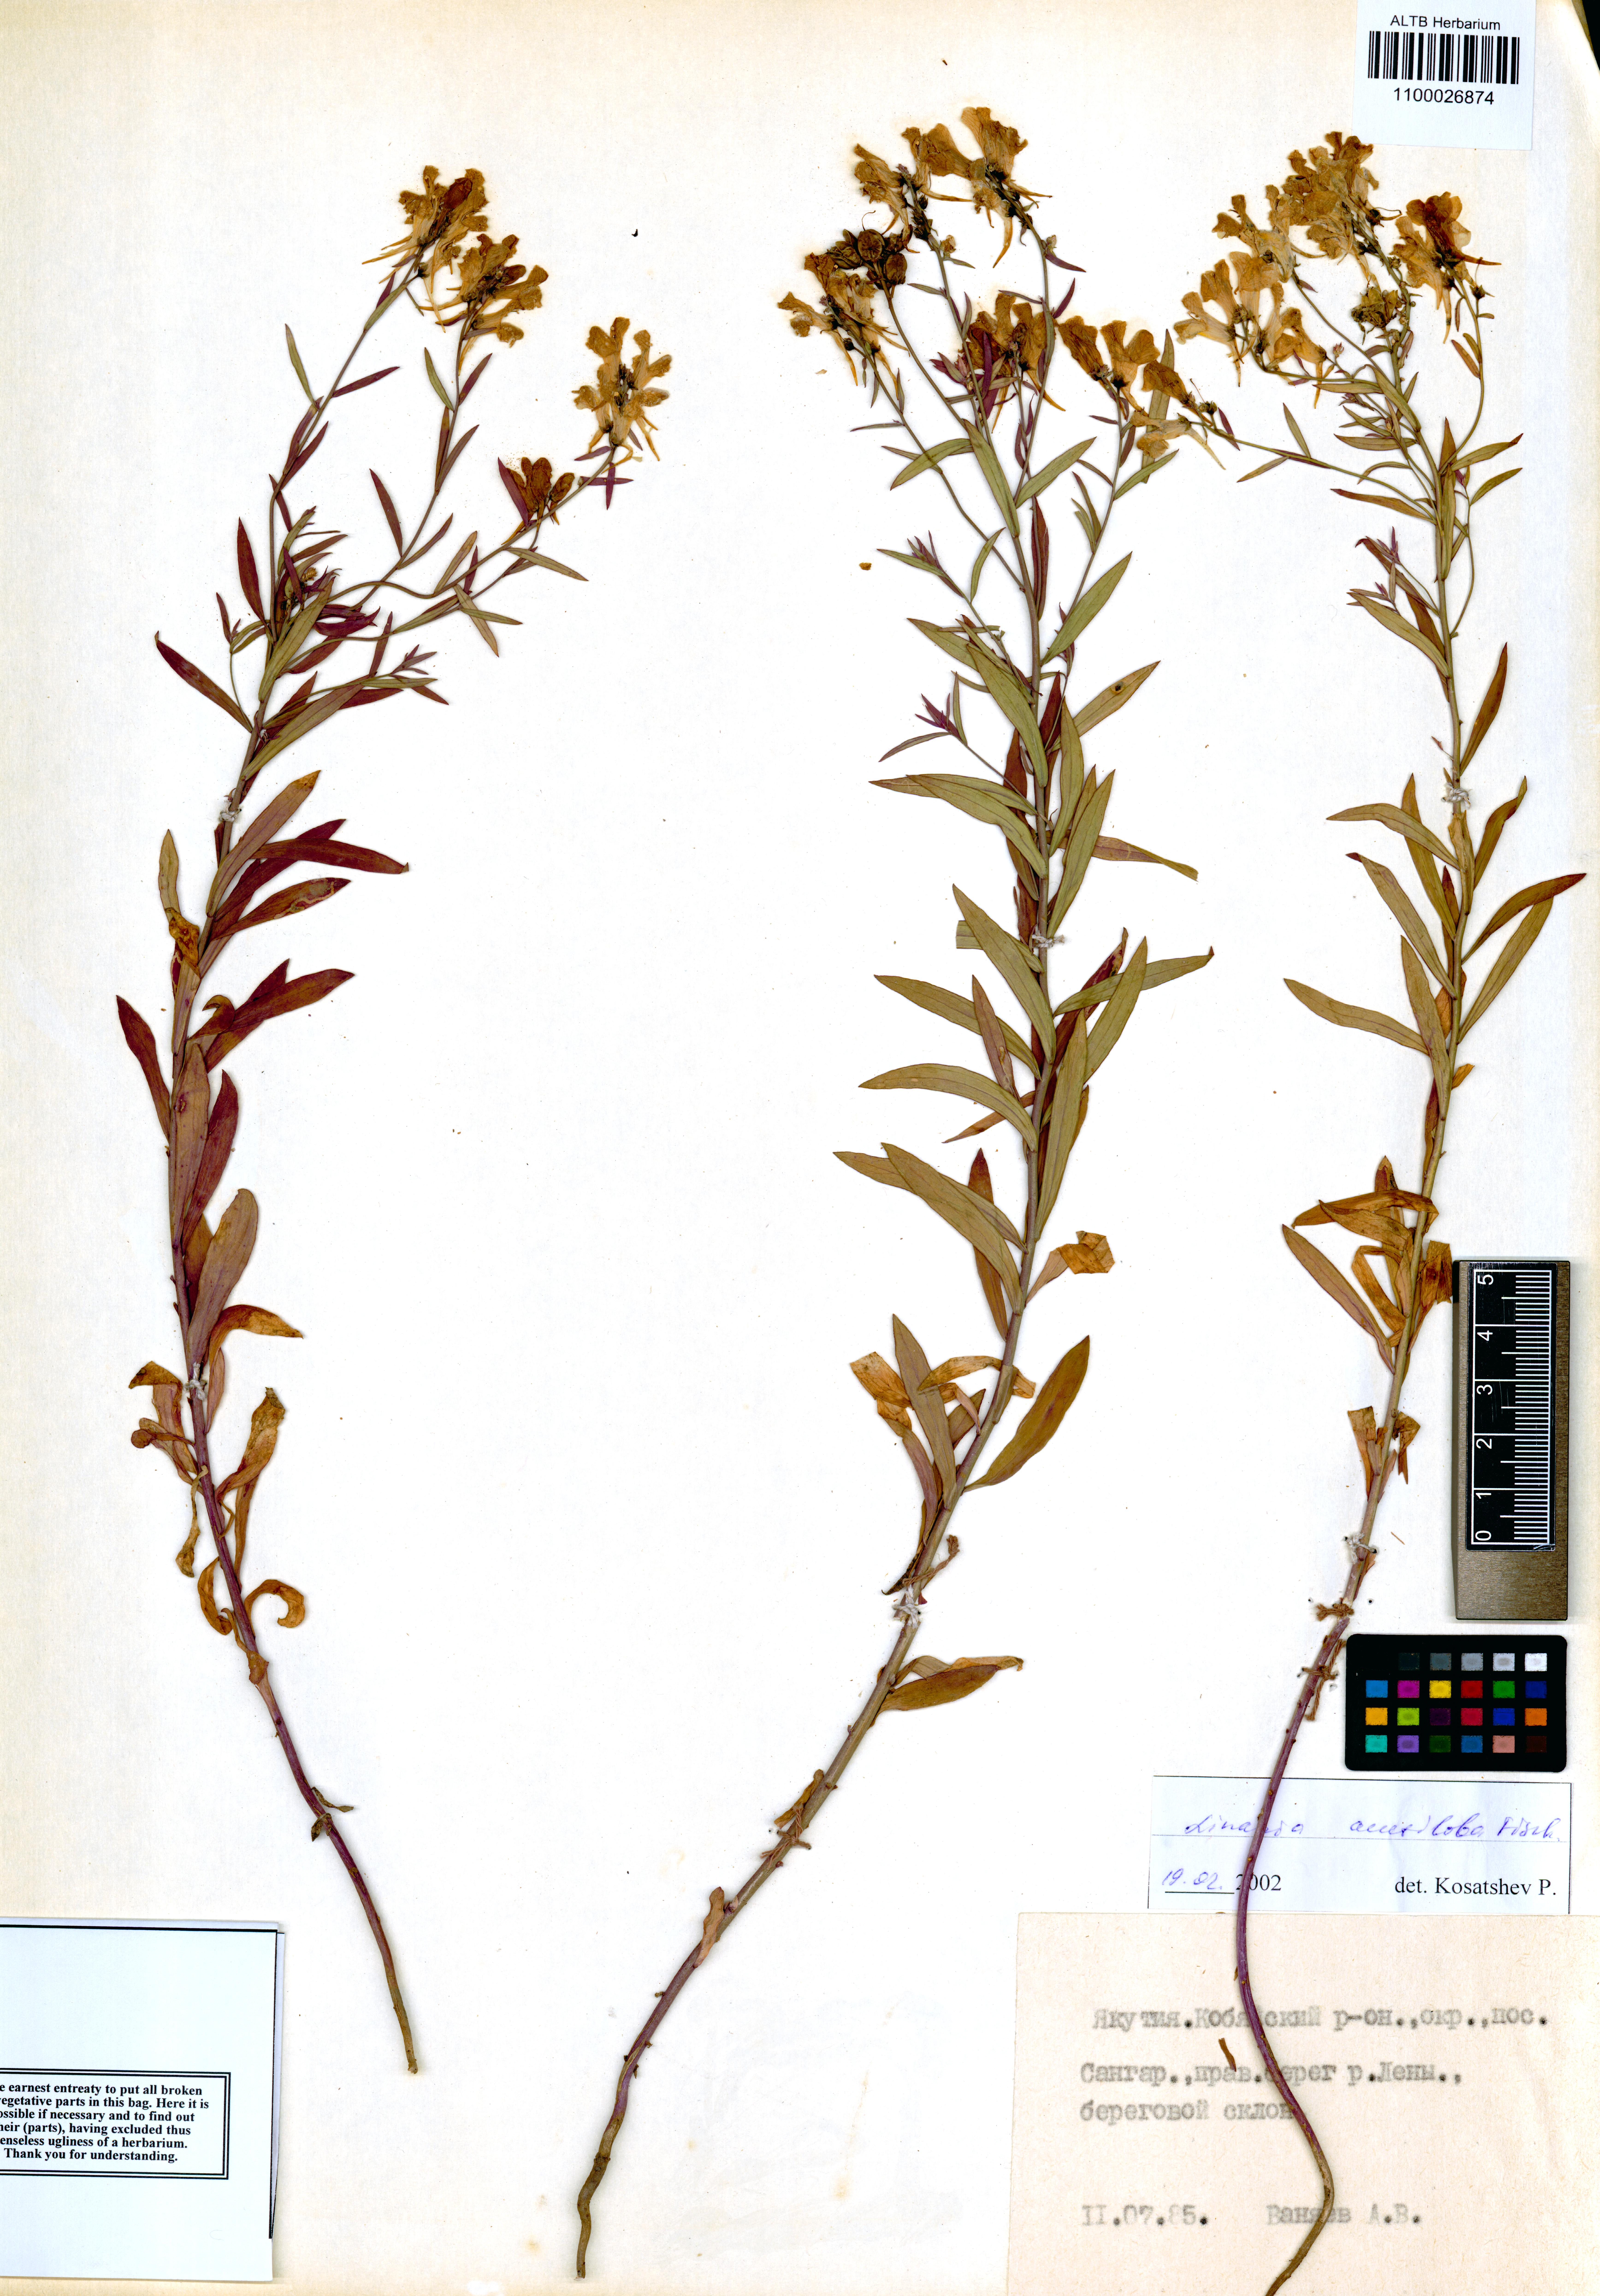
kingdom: Plantae
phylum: Tracheophyta
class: Magnoliopsida
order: Lamiales
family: Plantaginaceae
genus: Linaria
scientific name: Linaria acutiloba
